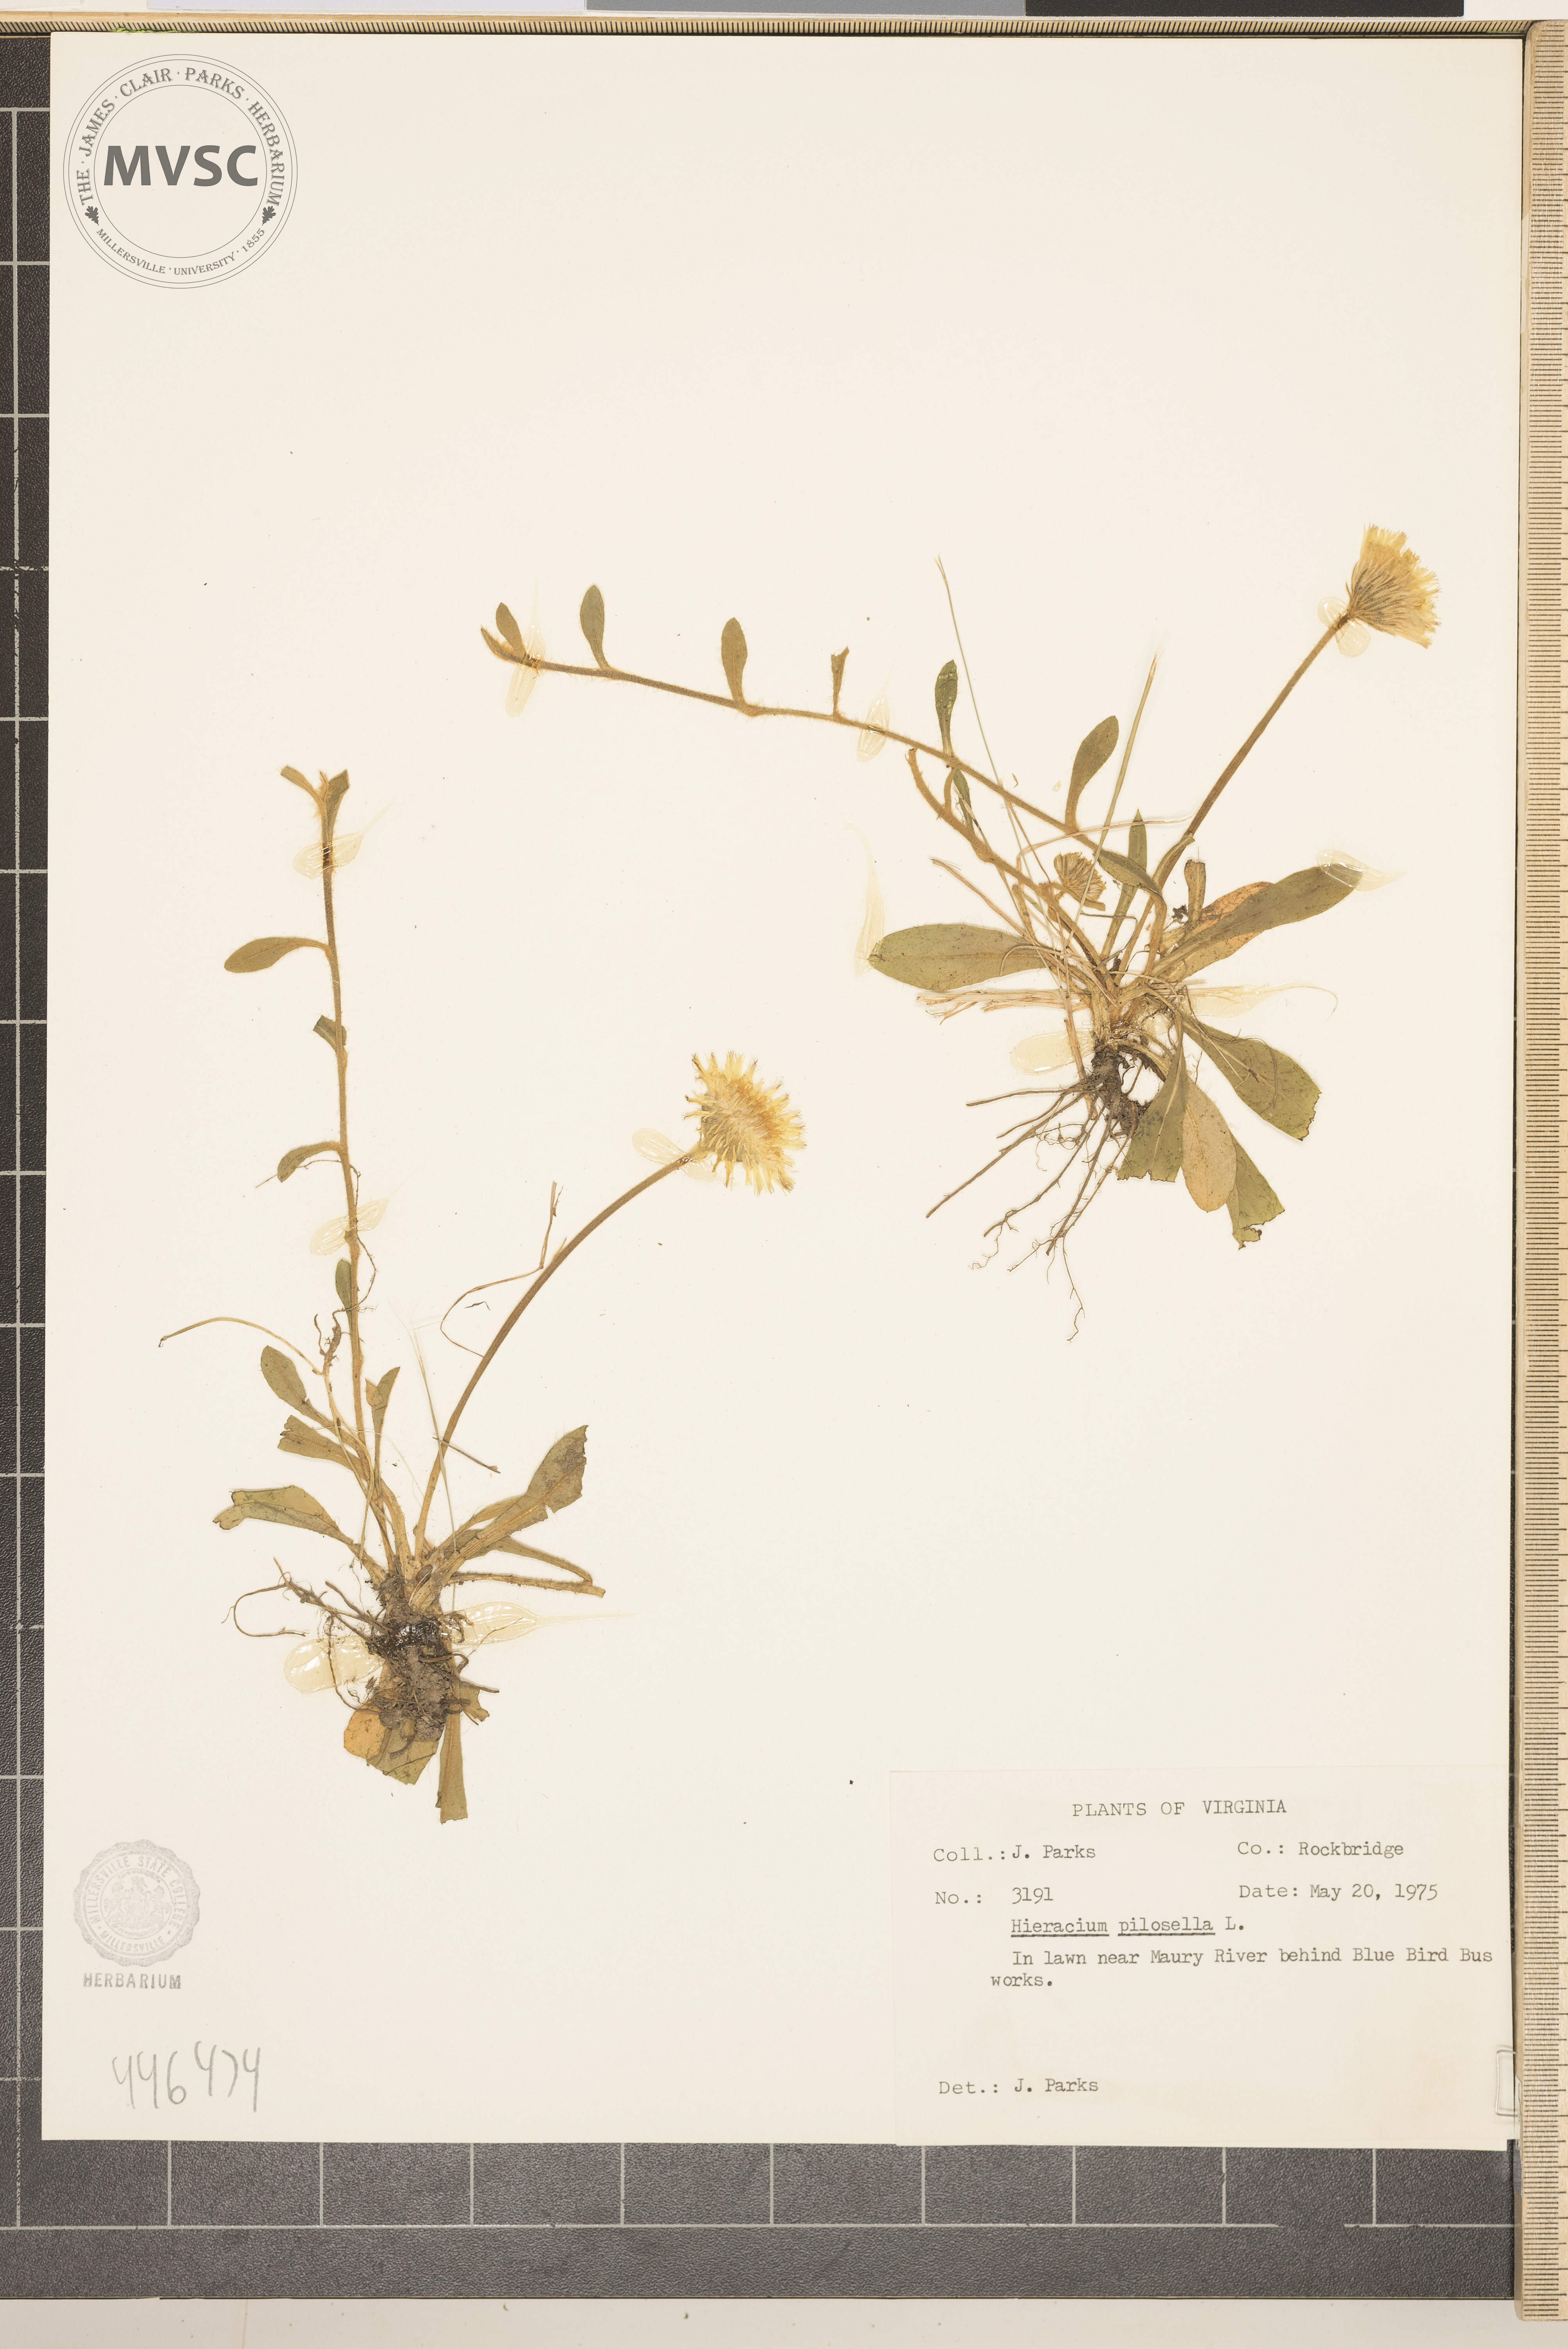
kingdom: Plantae
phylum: Tracheophyta
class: Magnoliopsida
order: Asterales
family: Asteraceae
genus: Pilosella
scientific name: Pilosella officinarum
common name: Mouse-ear hawkweed
